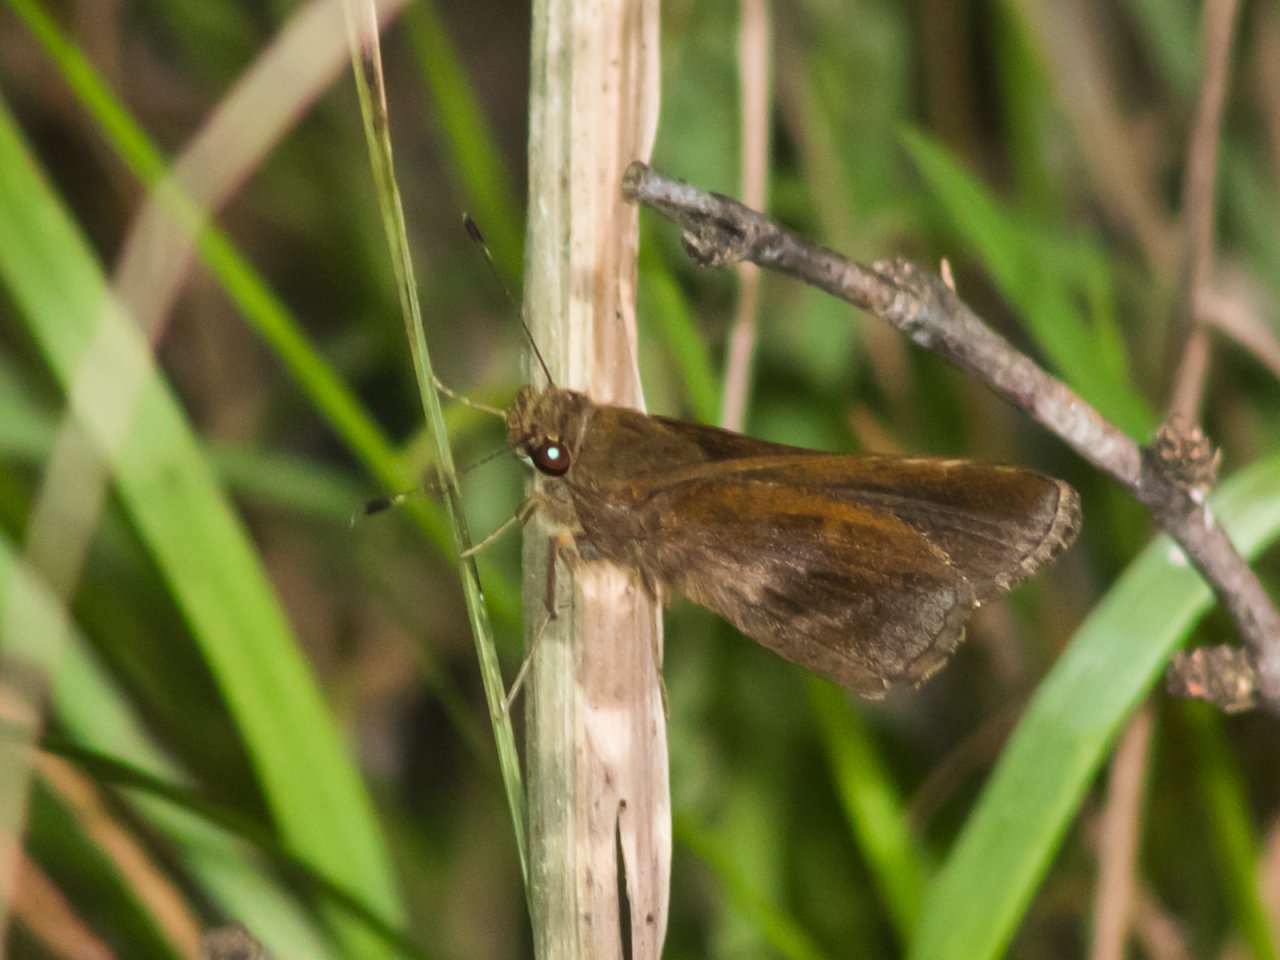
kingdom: Animalia
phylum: Arthropoda
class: Insecta
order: Lepidoptera
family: Hesperiidae
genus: Lerema
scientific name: Lerema accius
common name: Clouded Skipper
